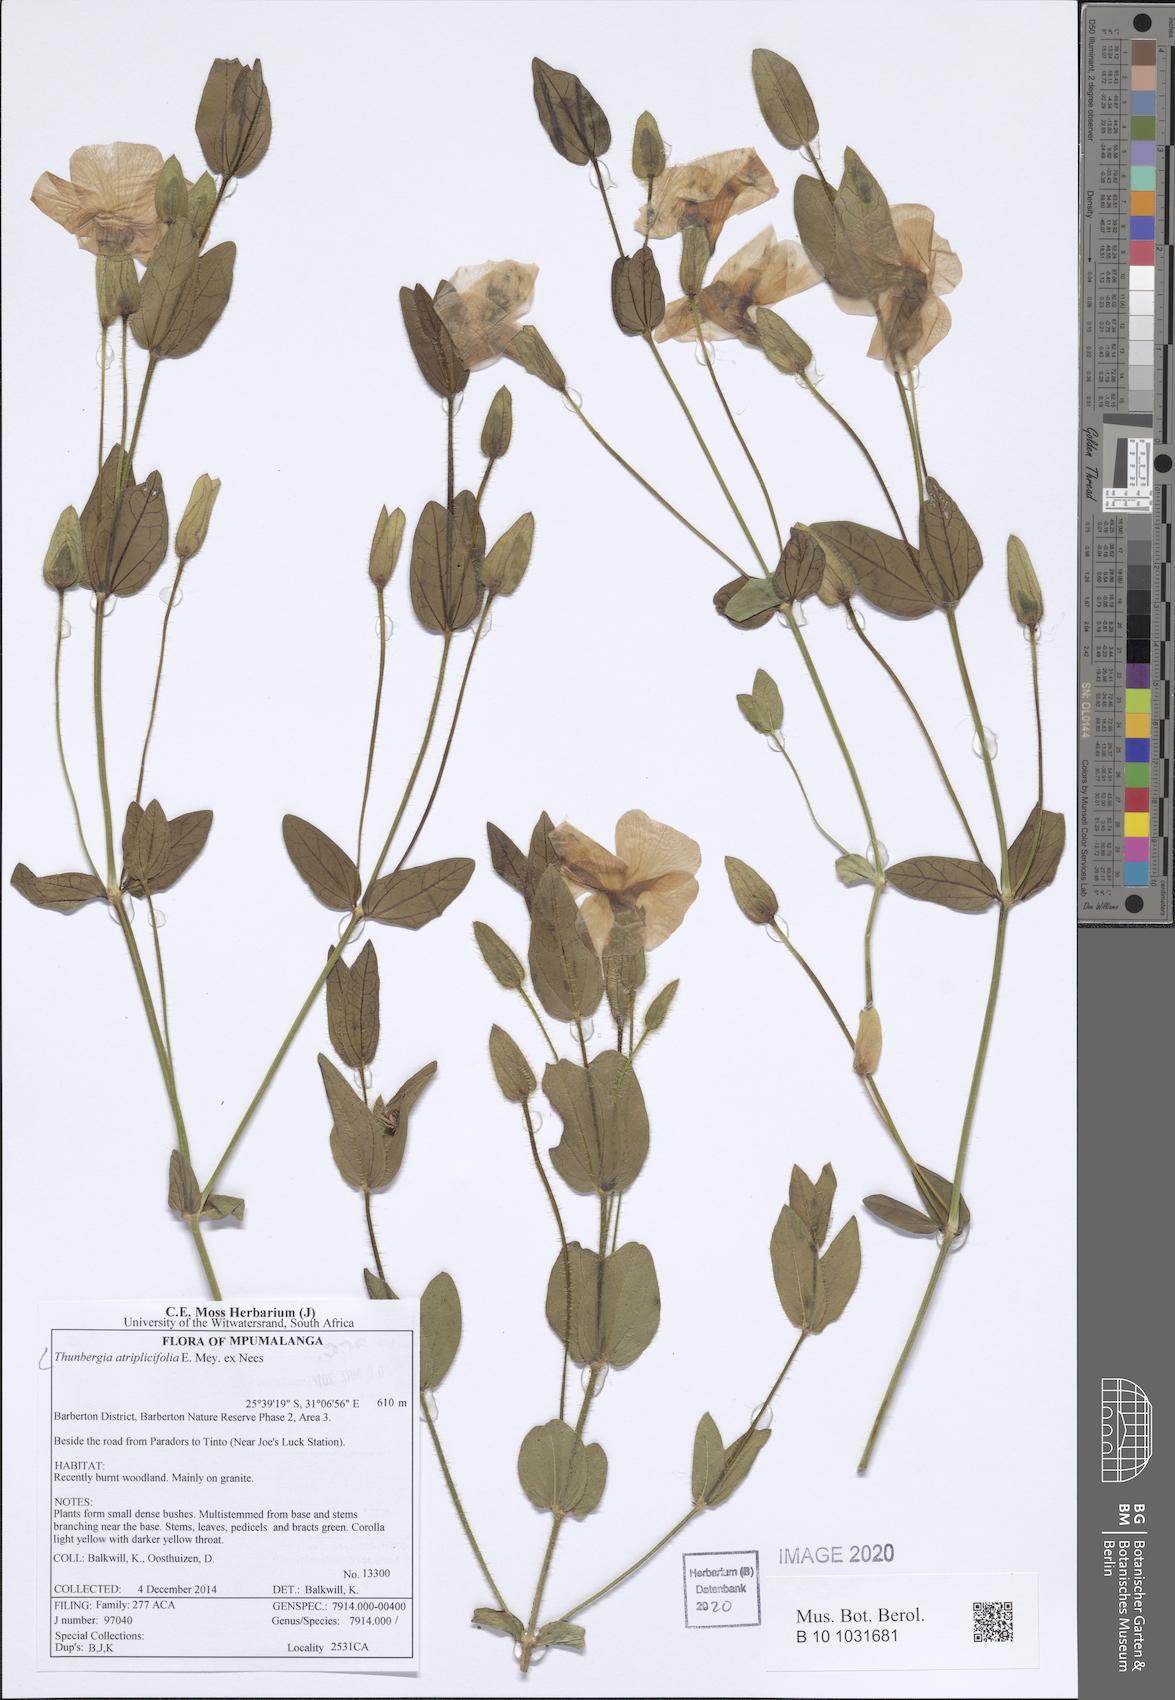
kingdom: Plantae
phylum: Tracheophyta
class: Magnoliopsida
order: Lamiales
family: Acanthaceae
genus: Thunbergia
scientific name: Thunbergia atriplicifolia
